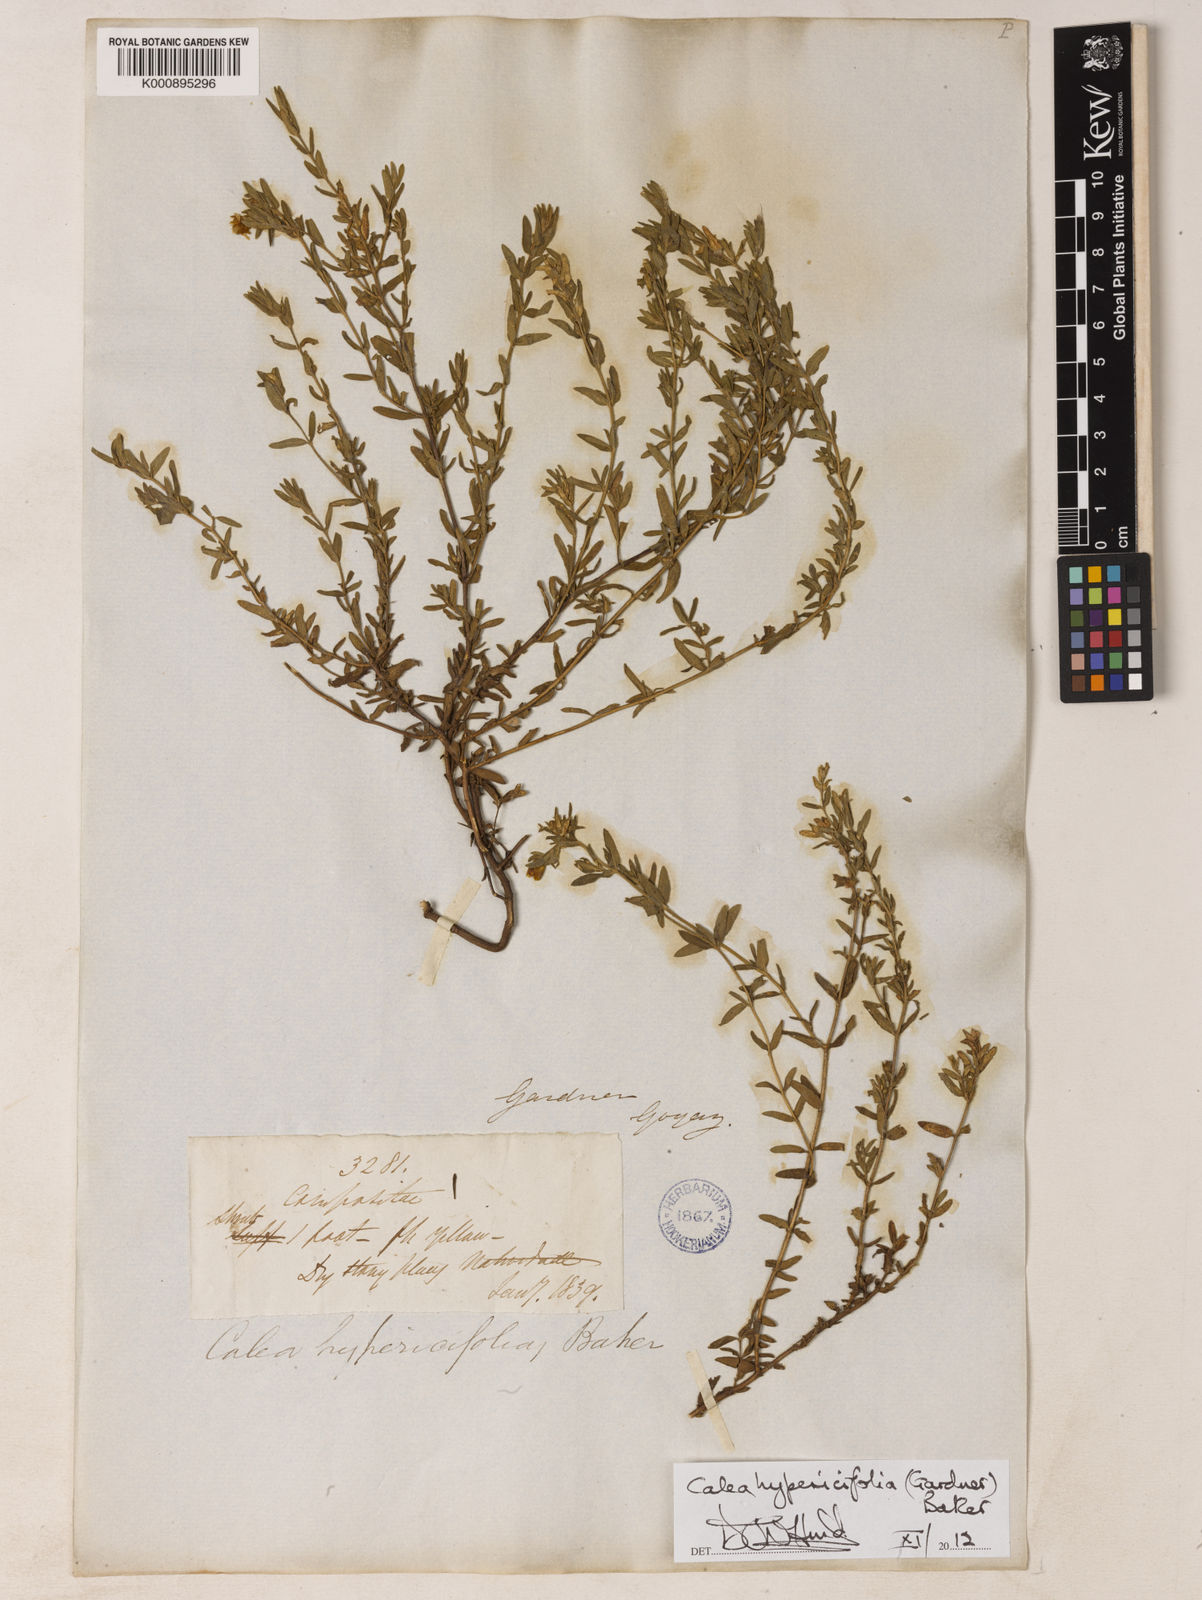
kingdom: Plantae
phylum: Tracheophyta
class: Magnoliopsida
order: Asterales
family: Asteraceae
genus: Calea
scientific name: Calea
